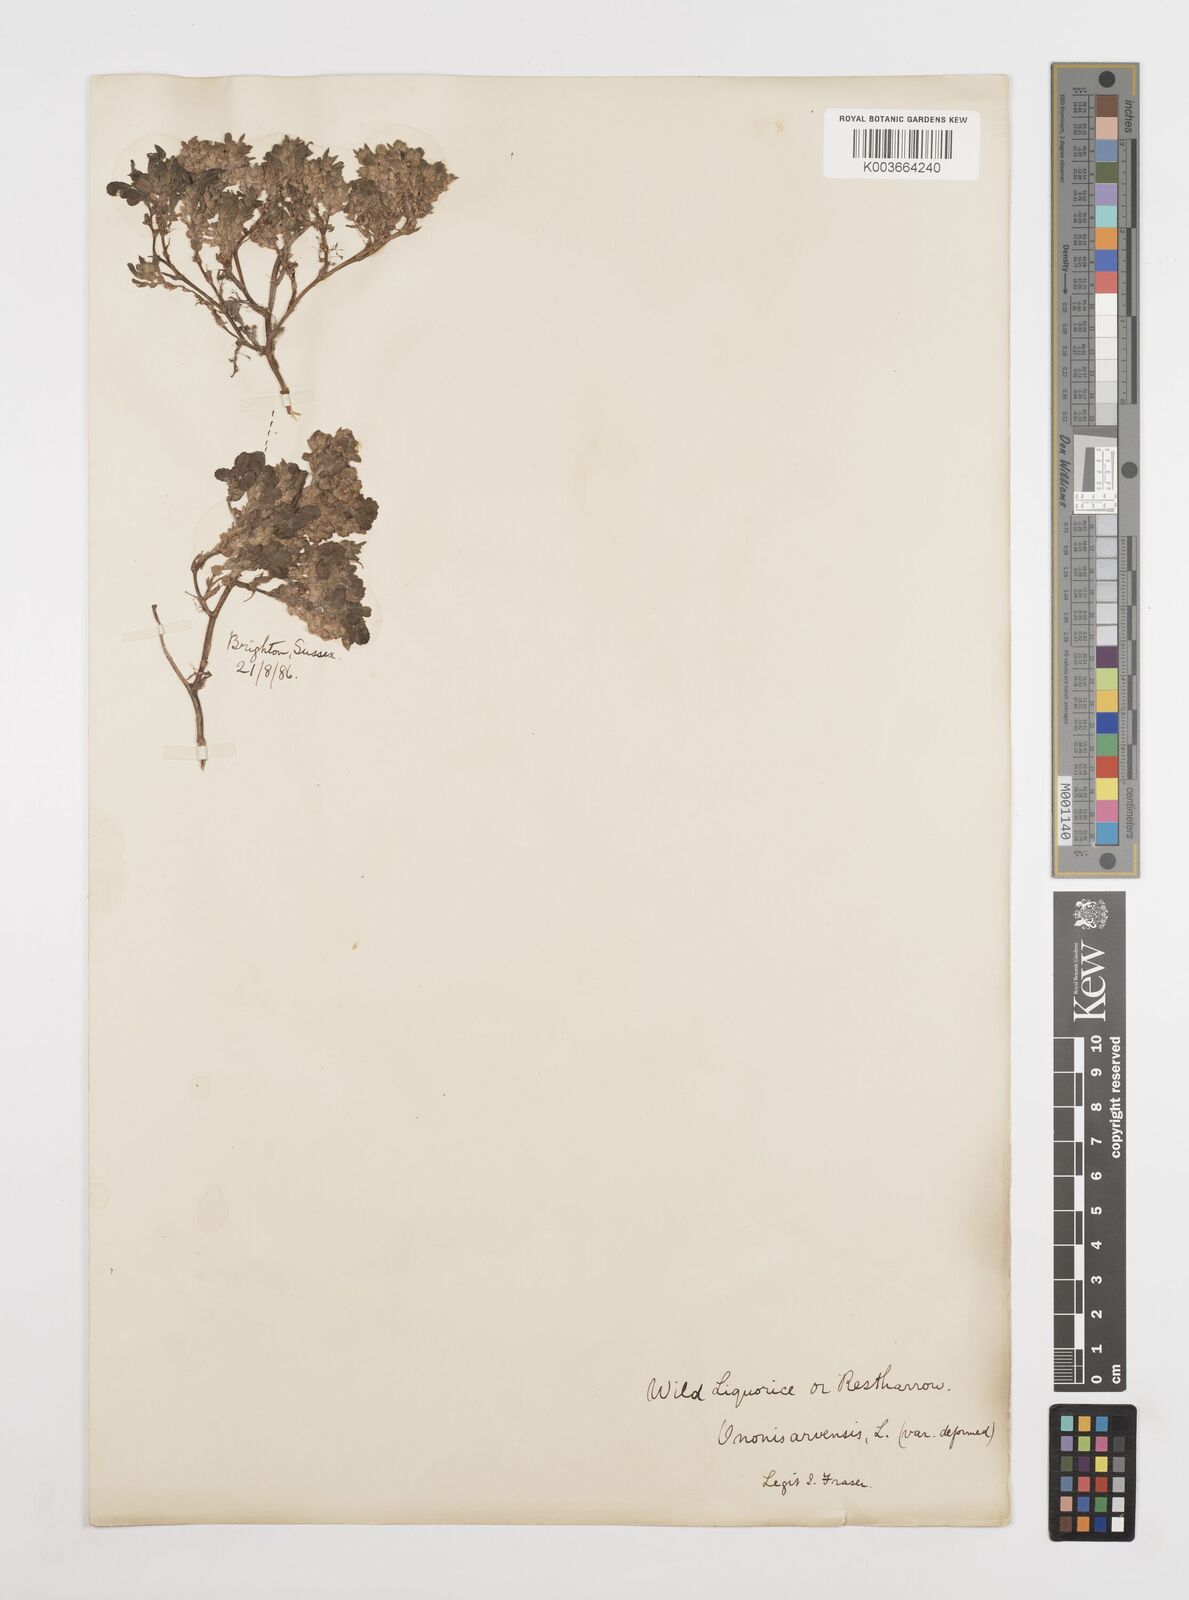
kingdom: Plantae
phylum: Tracheophyta
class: Magnoliopsida
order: Fabales
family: Fabaceae
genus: Ononis
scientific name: Ononis spinosa
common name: Spiny restharrow
